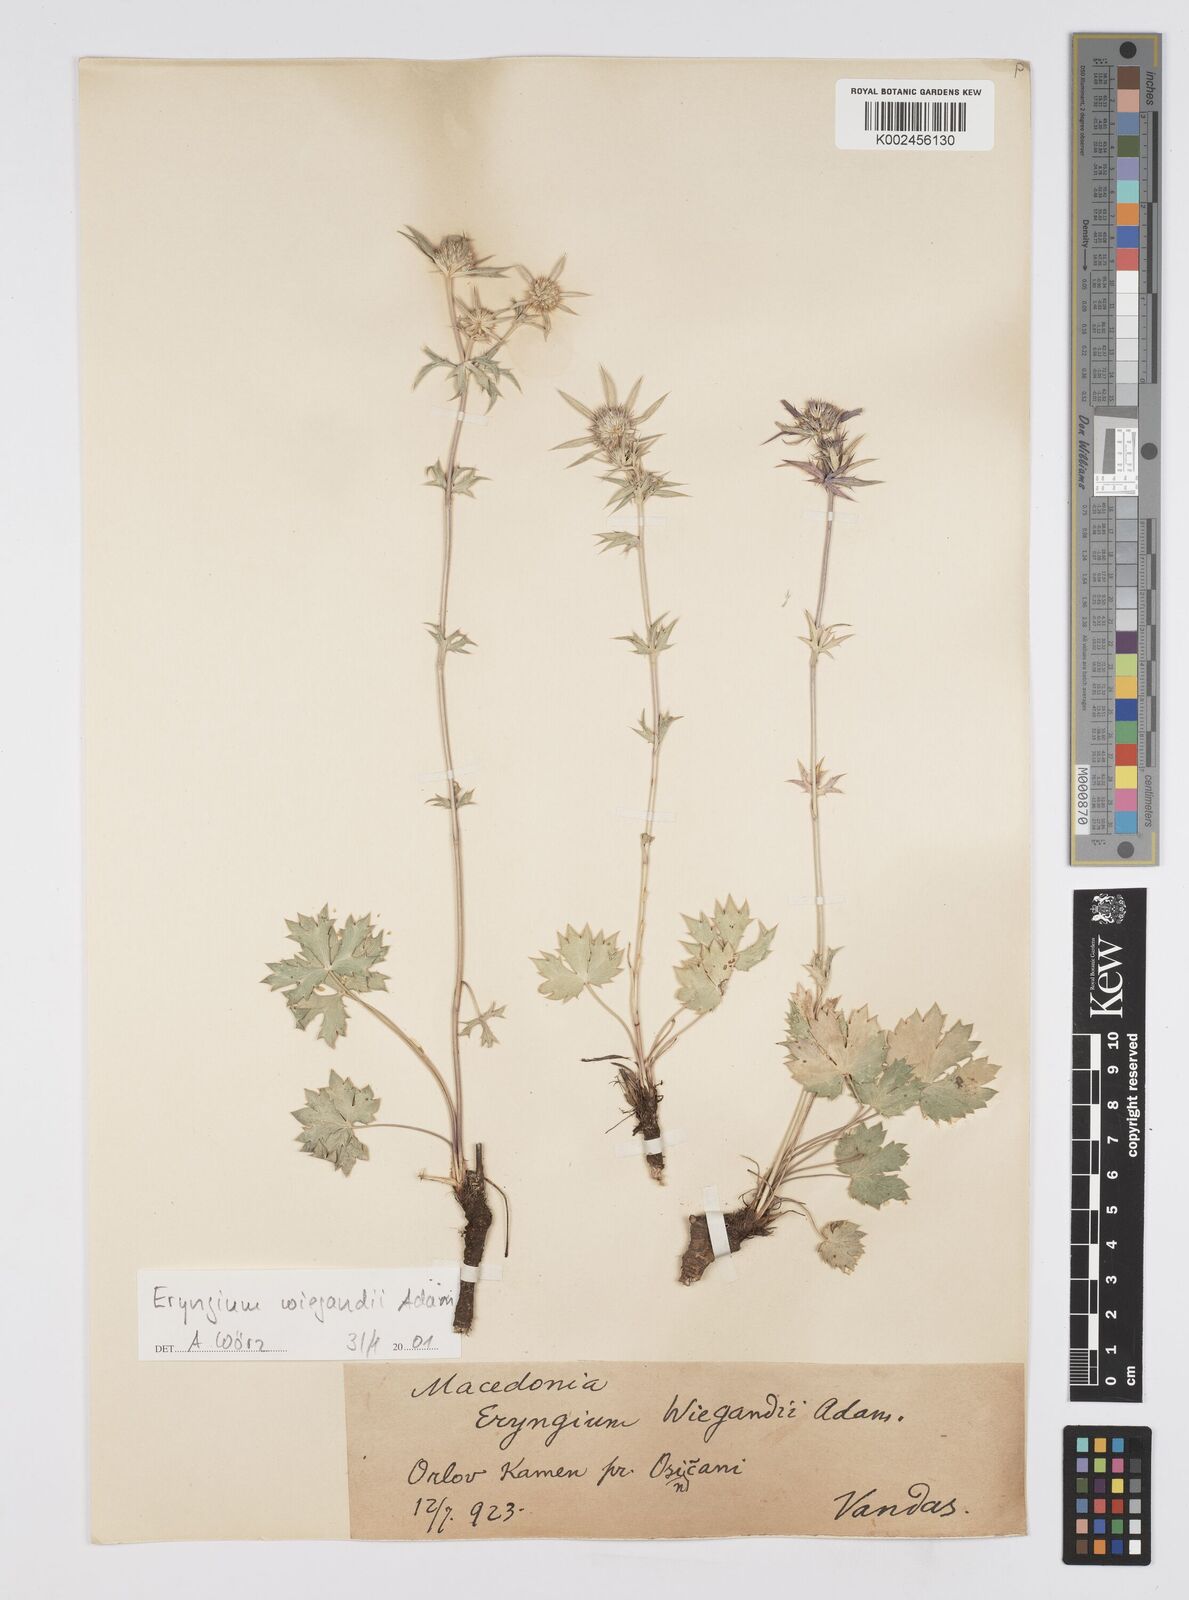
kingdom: Plantae
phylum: Tracheophyta
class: Magnoliopsida
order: Apiales
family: Apiaceae
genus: Eryngium
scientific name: Eryngium palmatum
